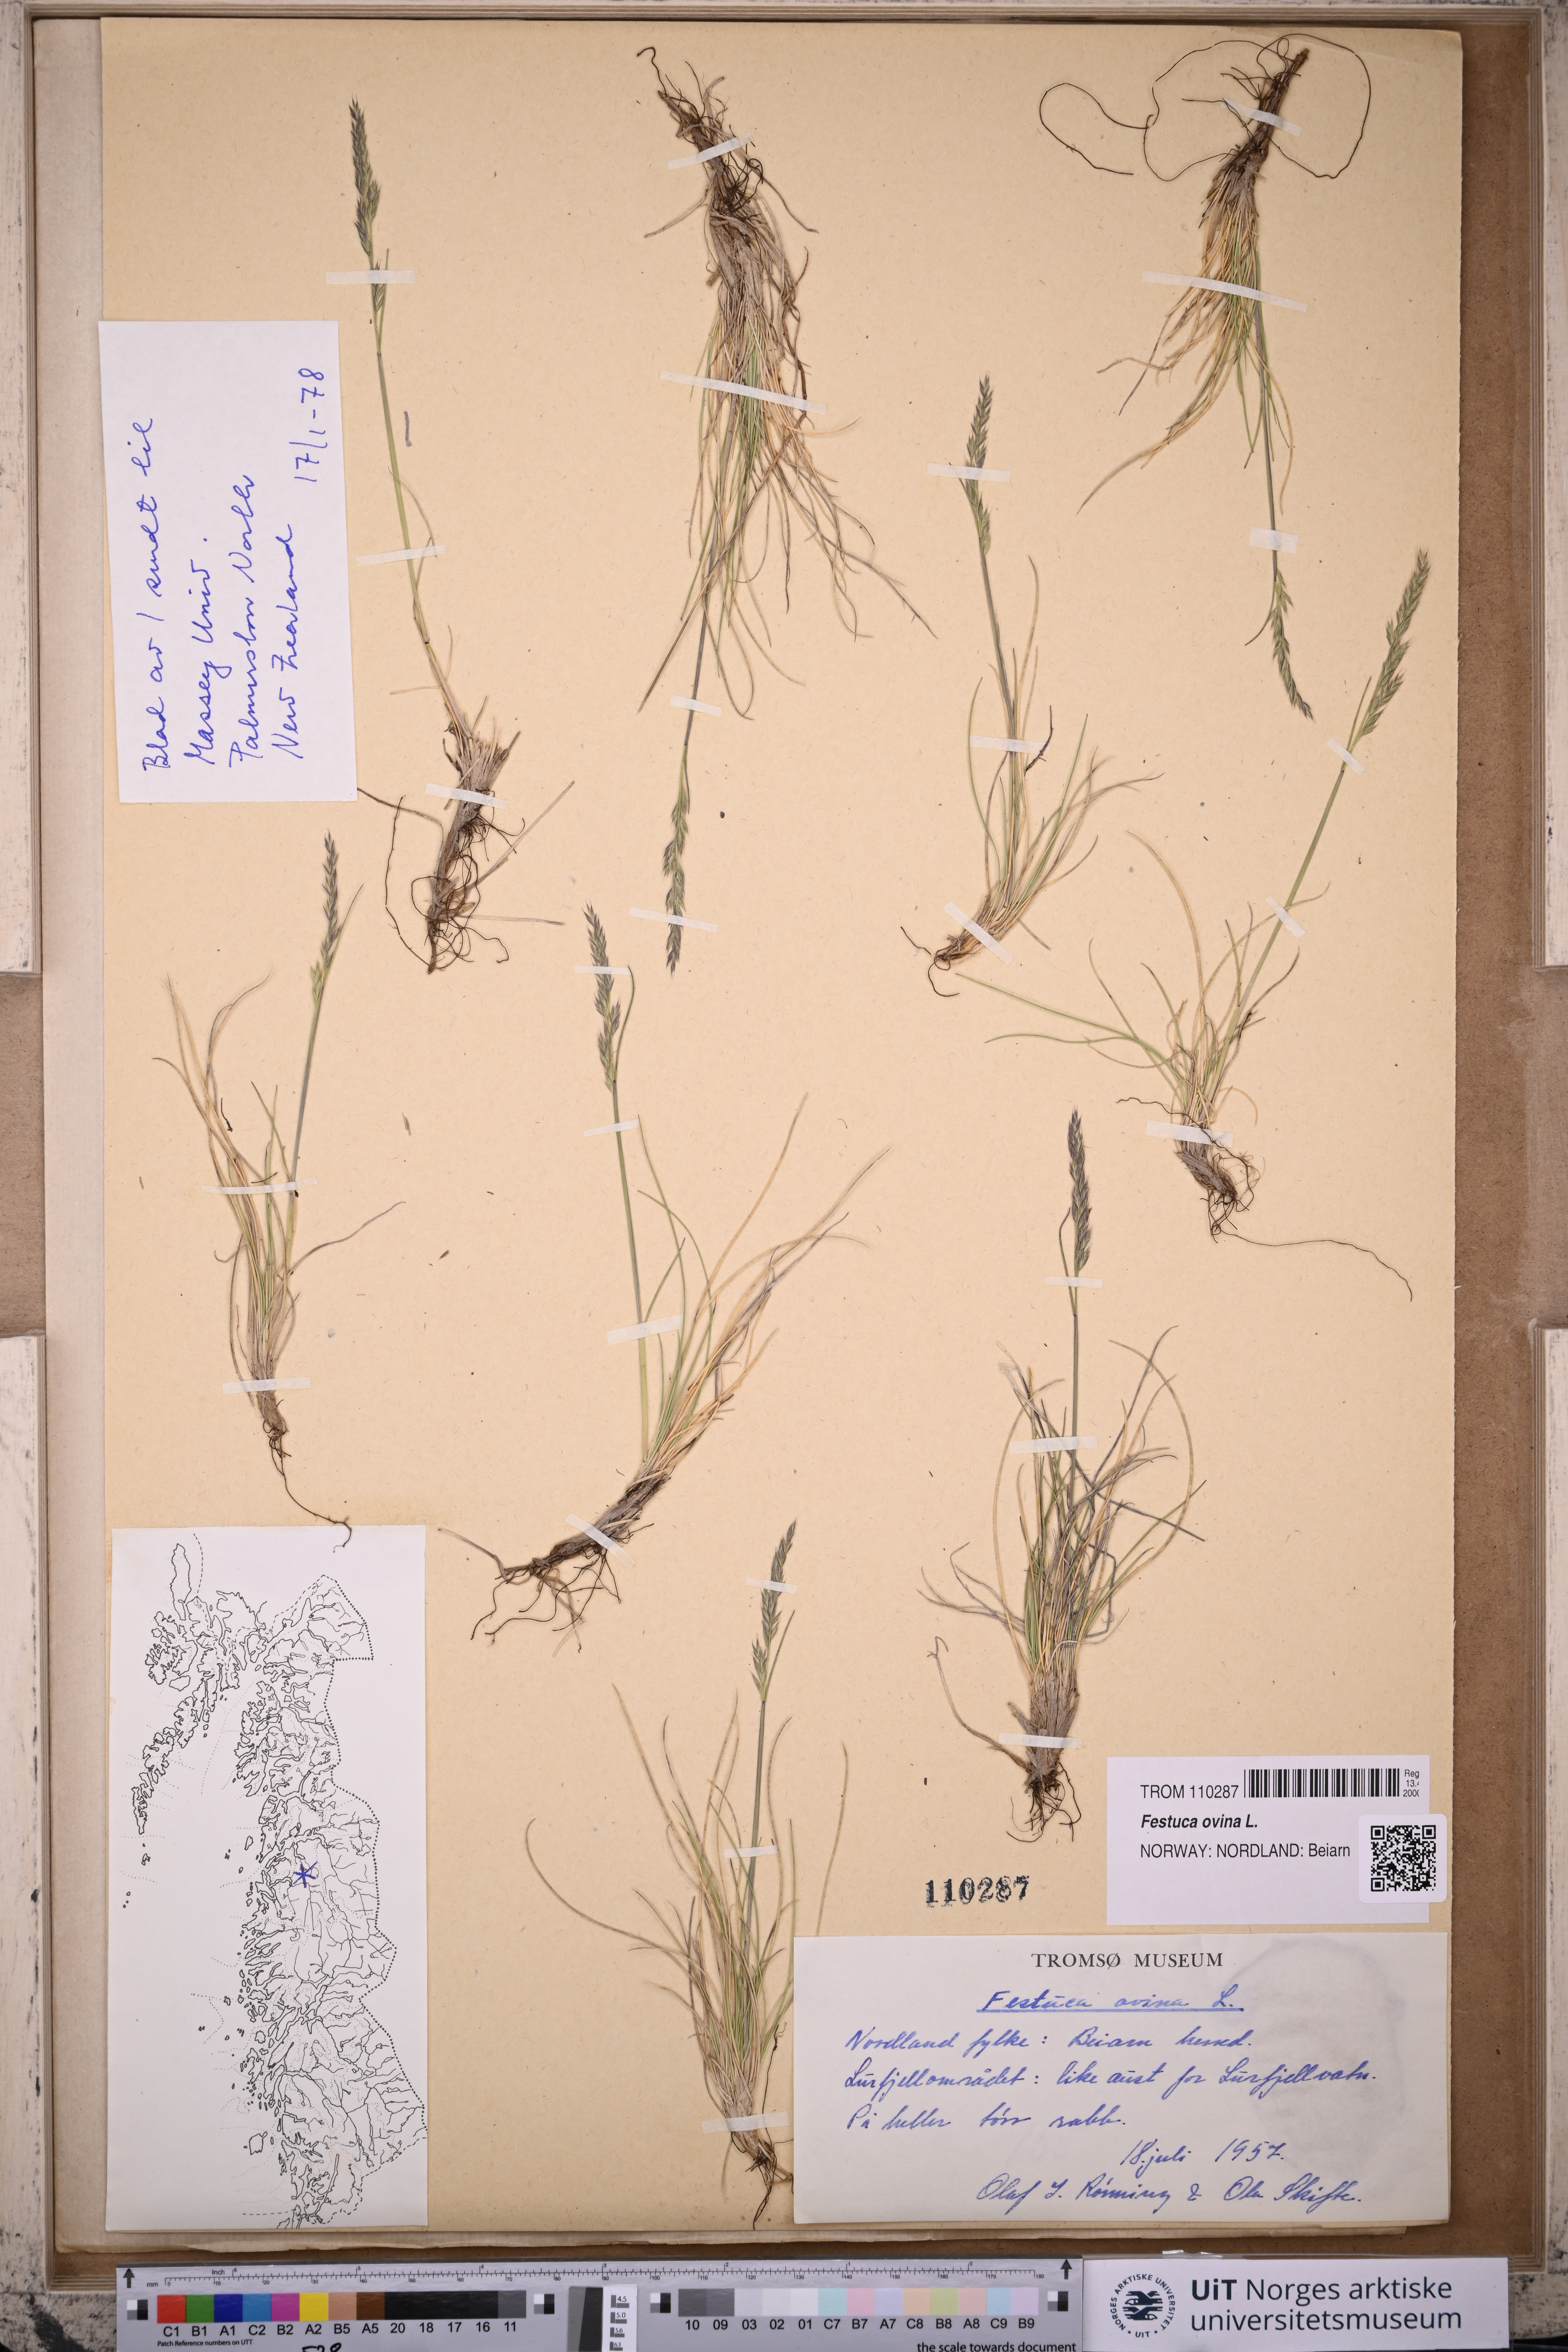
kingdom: Plantae
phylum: Tracheophyta
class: Liliopsida
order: Poales
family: Poaceae
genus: Festuca
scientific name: Festuca ovina
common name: Sheep fescue
